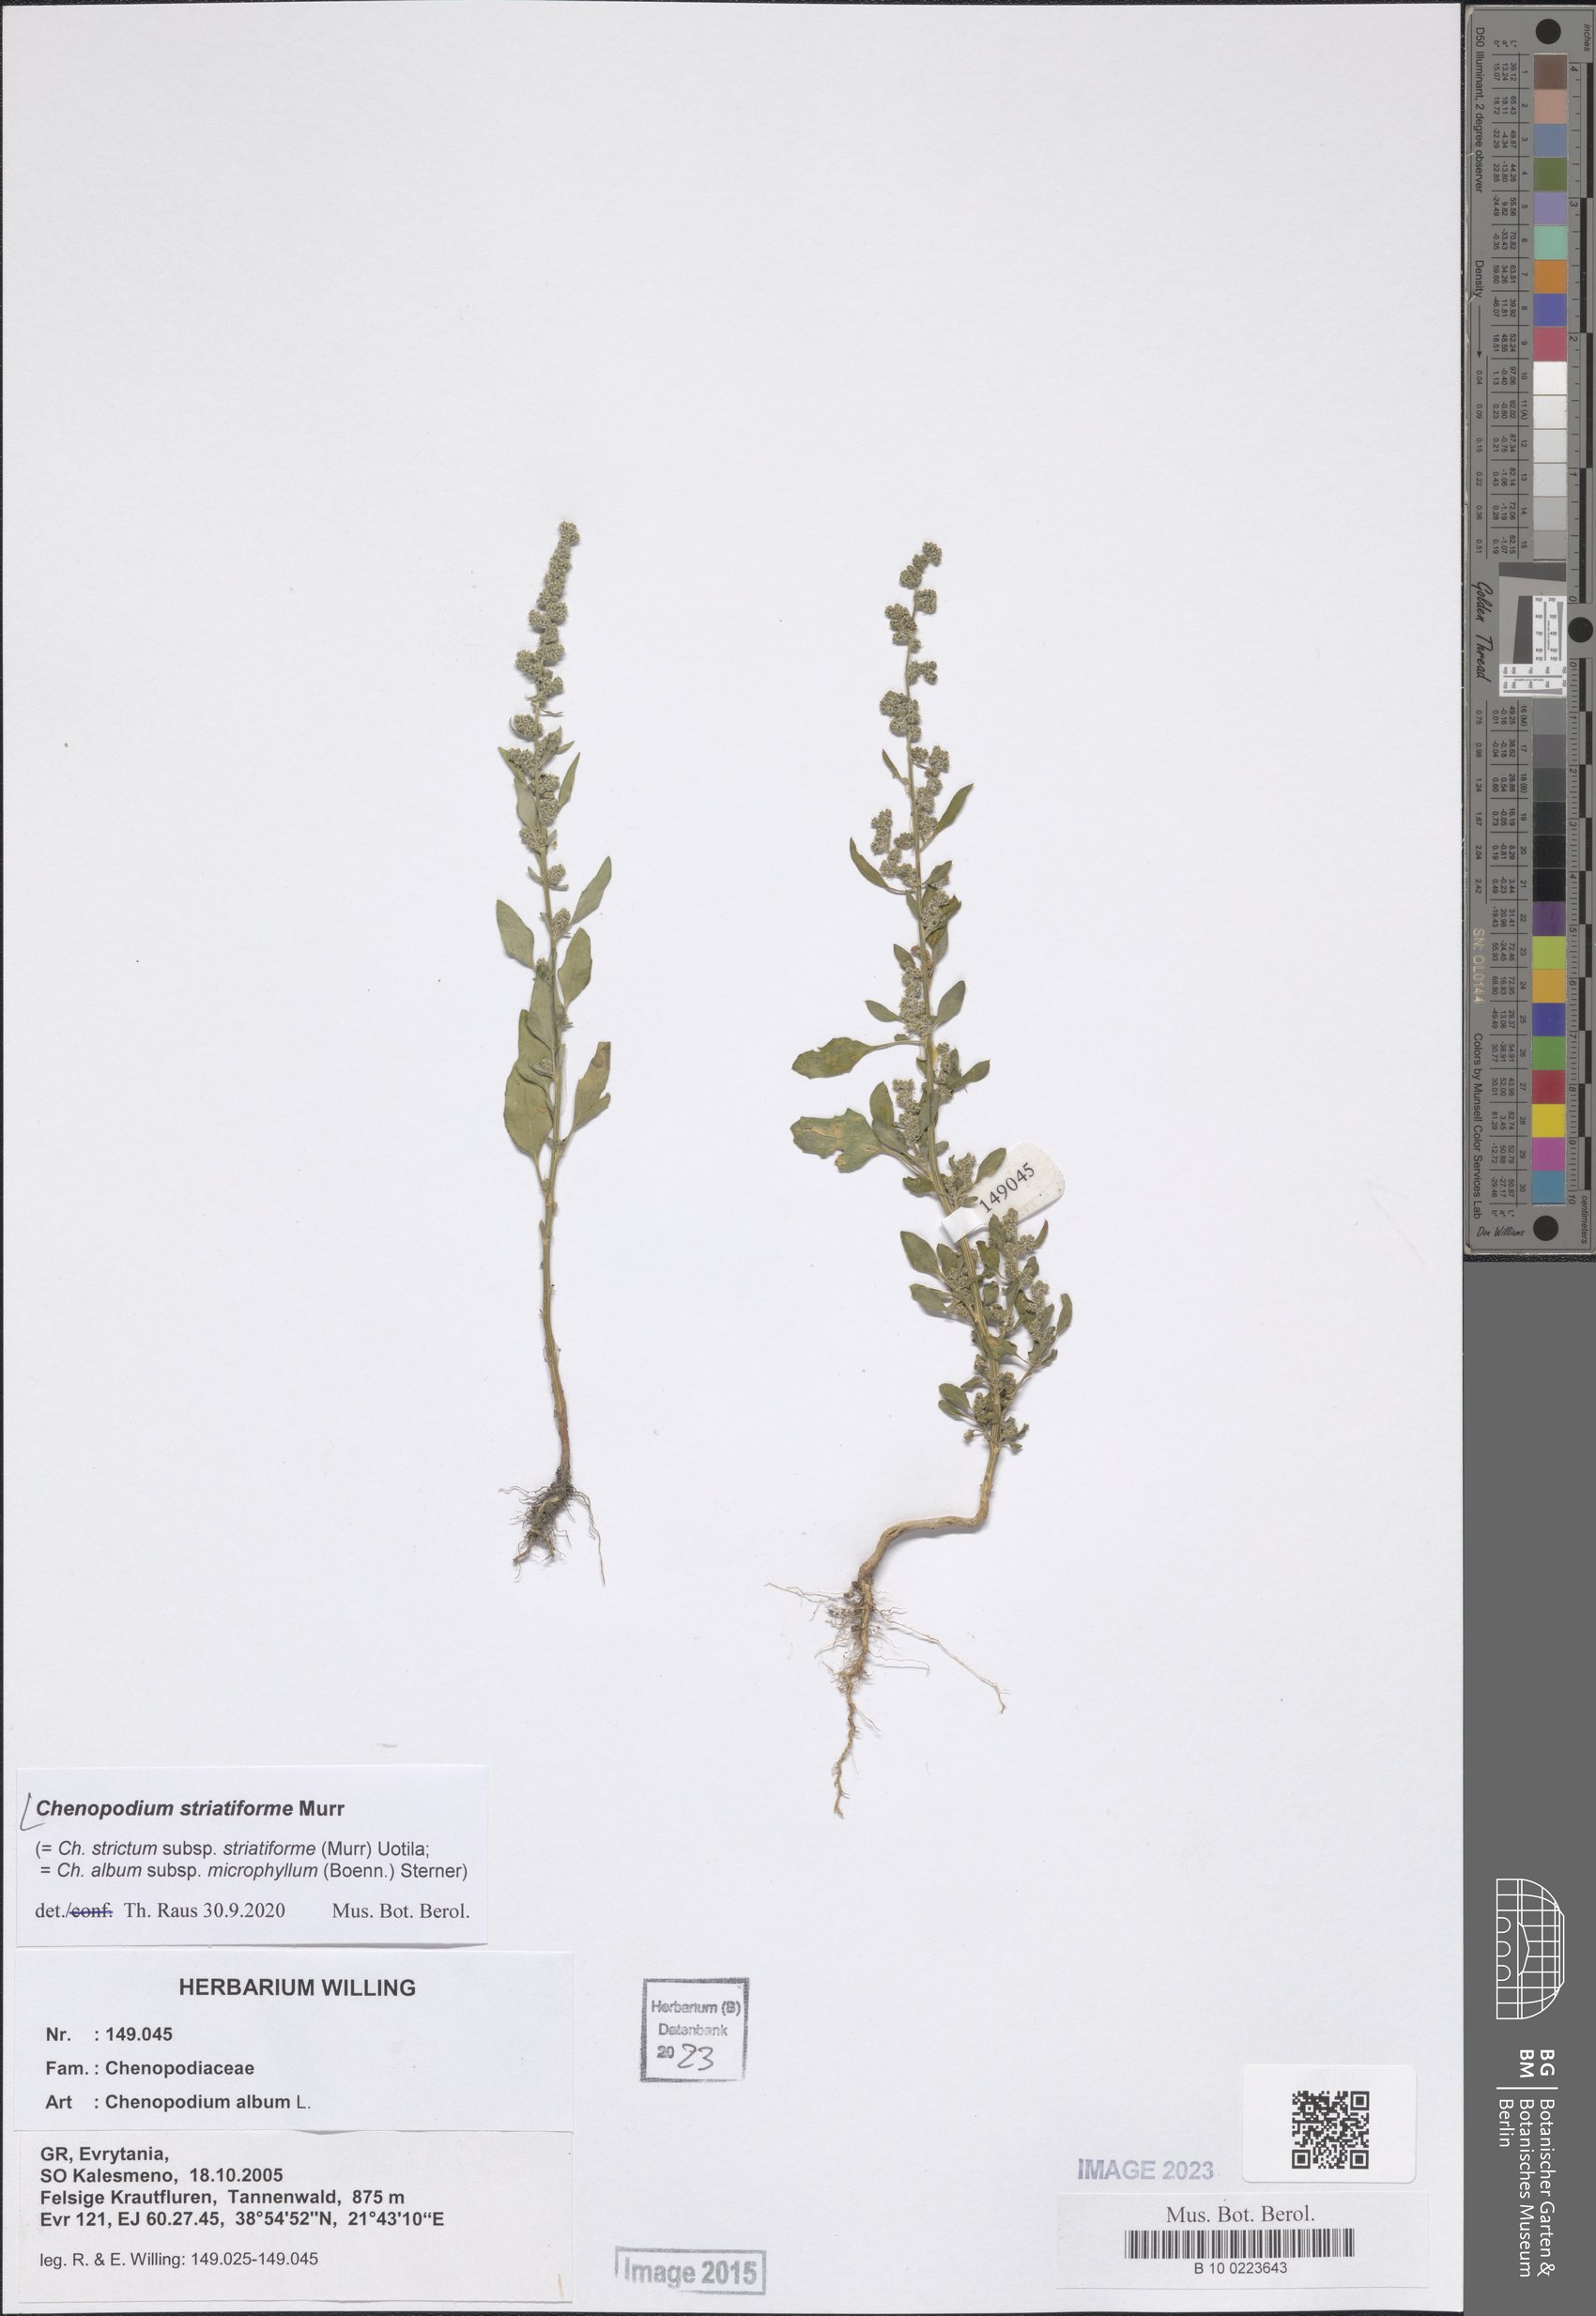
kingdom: Plantae
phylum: Tracheophyta
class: Magnoliopsida
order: Caryophyllales
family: Amaranthaceae
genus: Chenopodium
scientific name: Chenopodium striatiforme
